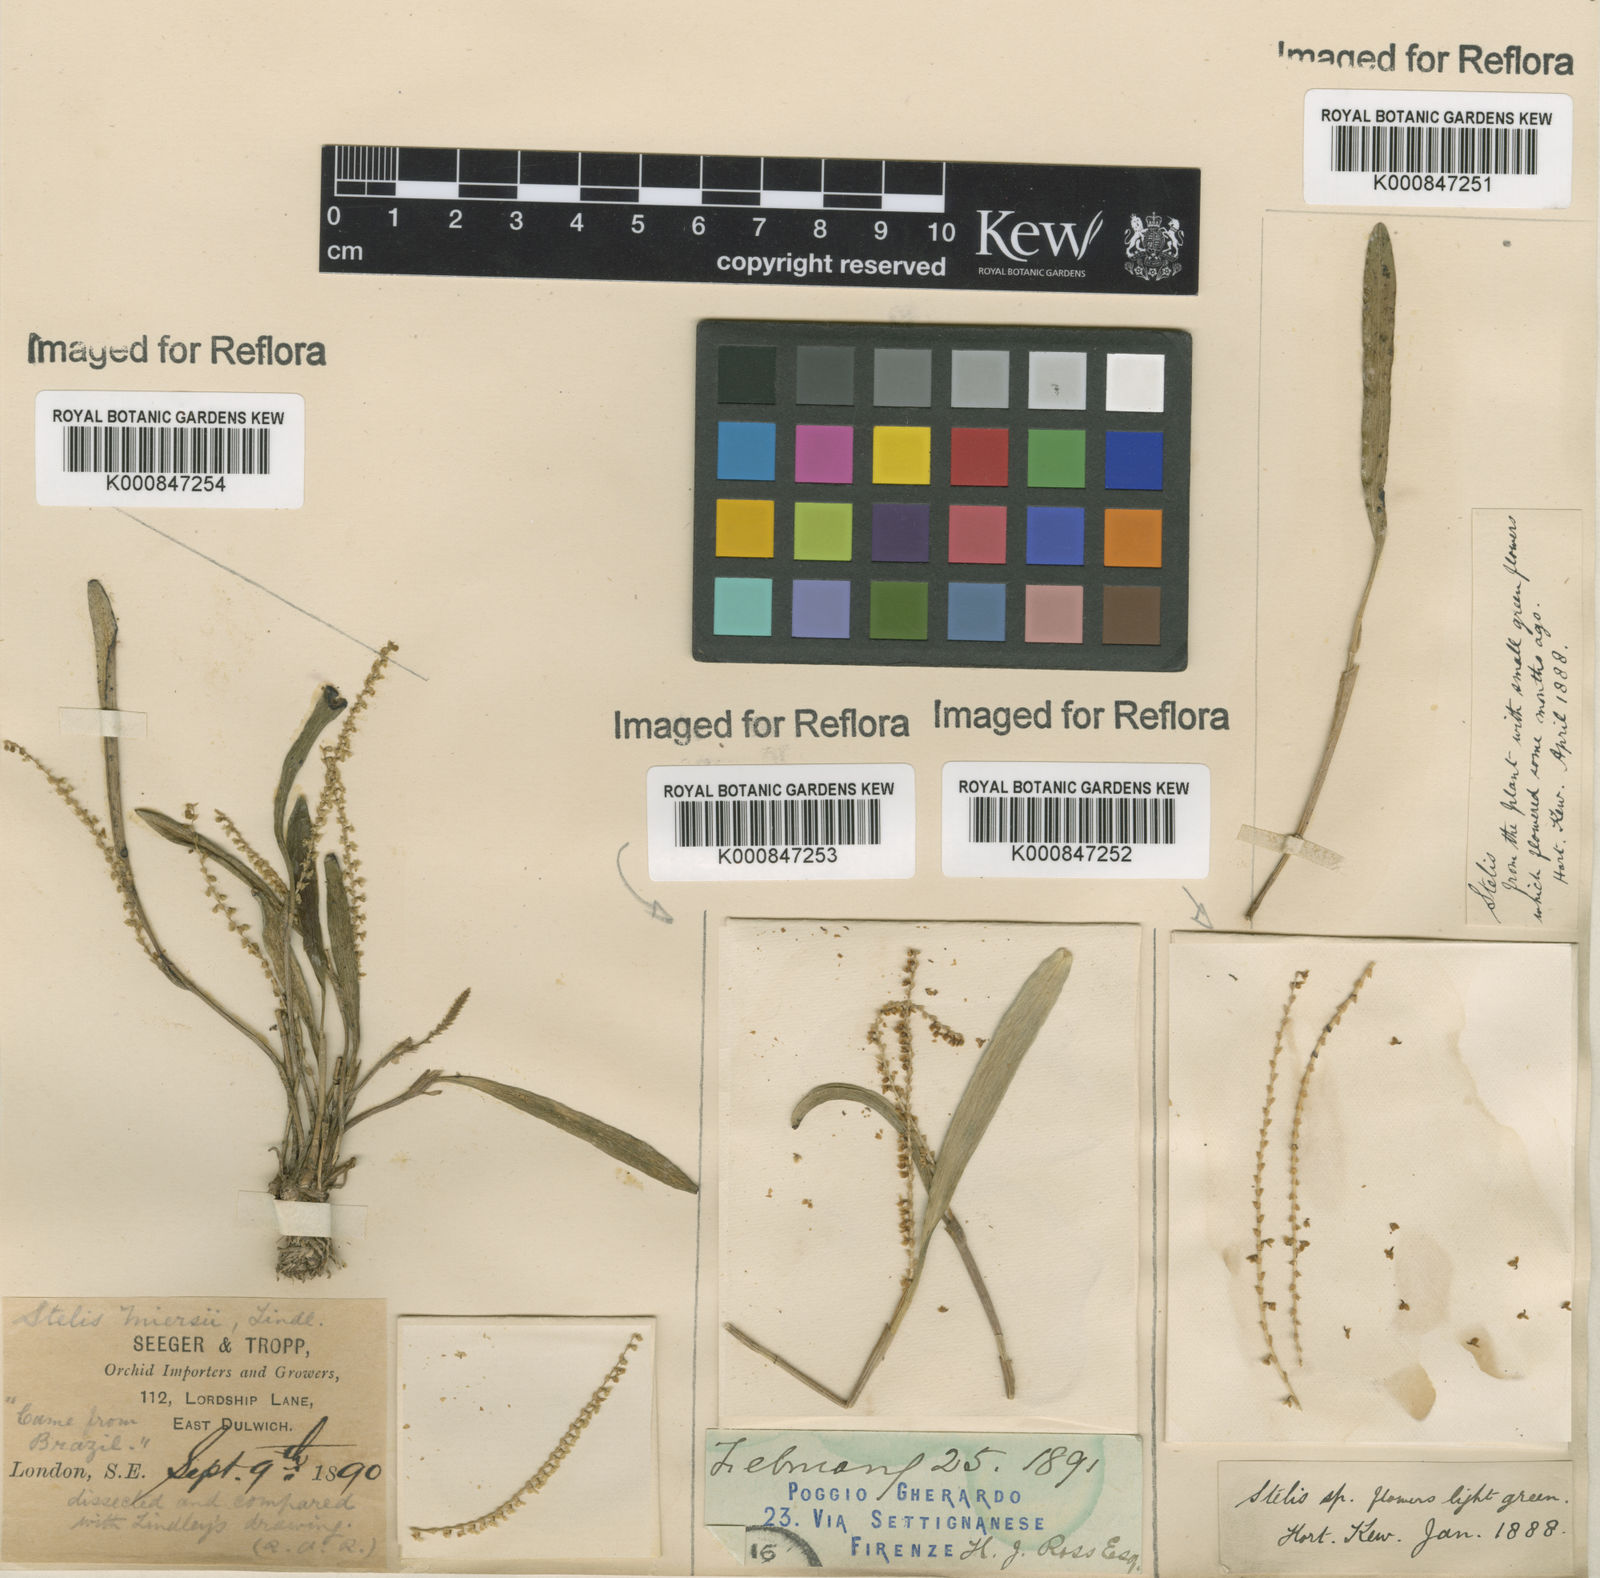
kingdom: Plantae
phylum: Tracheophyta
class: Liliopsida
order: Asparagales
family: Orchidaceae
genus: Stelis
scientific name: Stelis aprica
